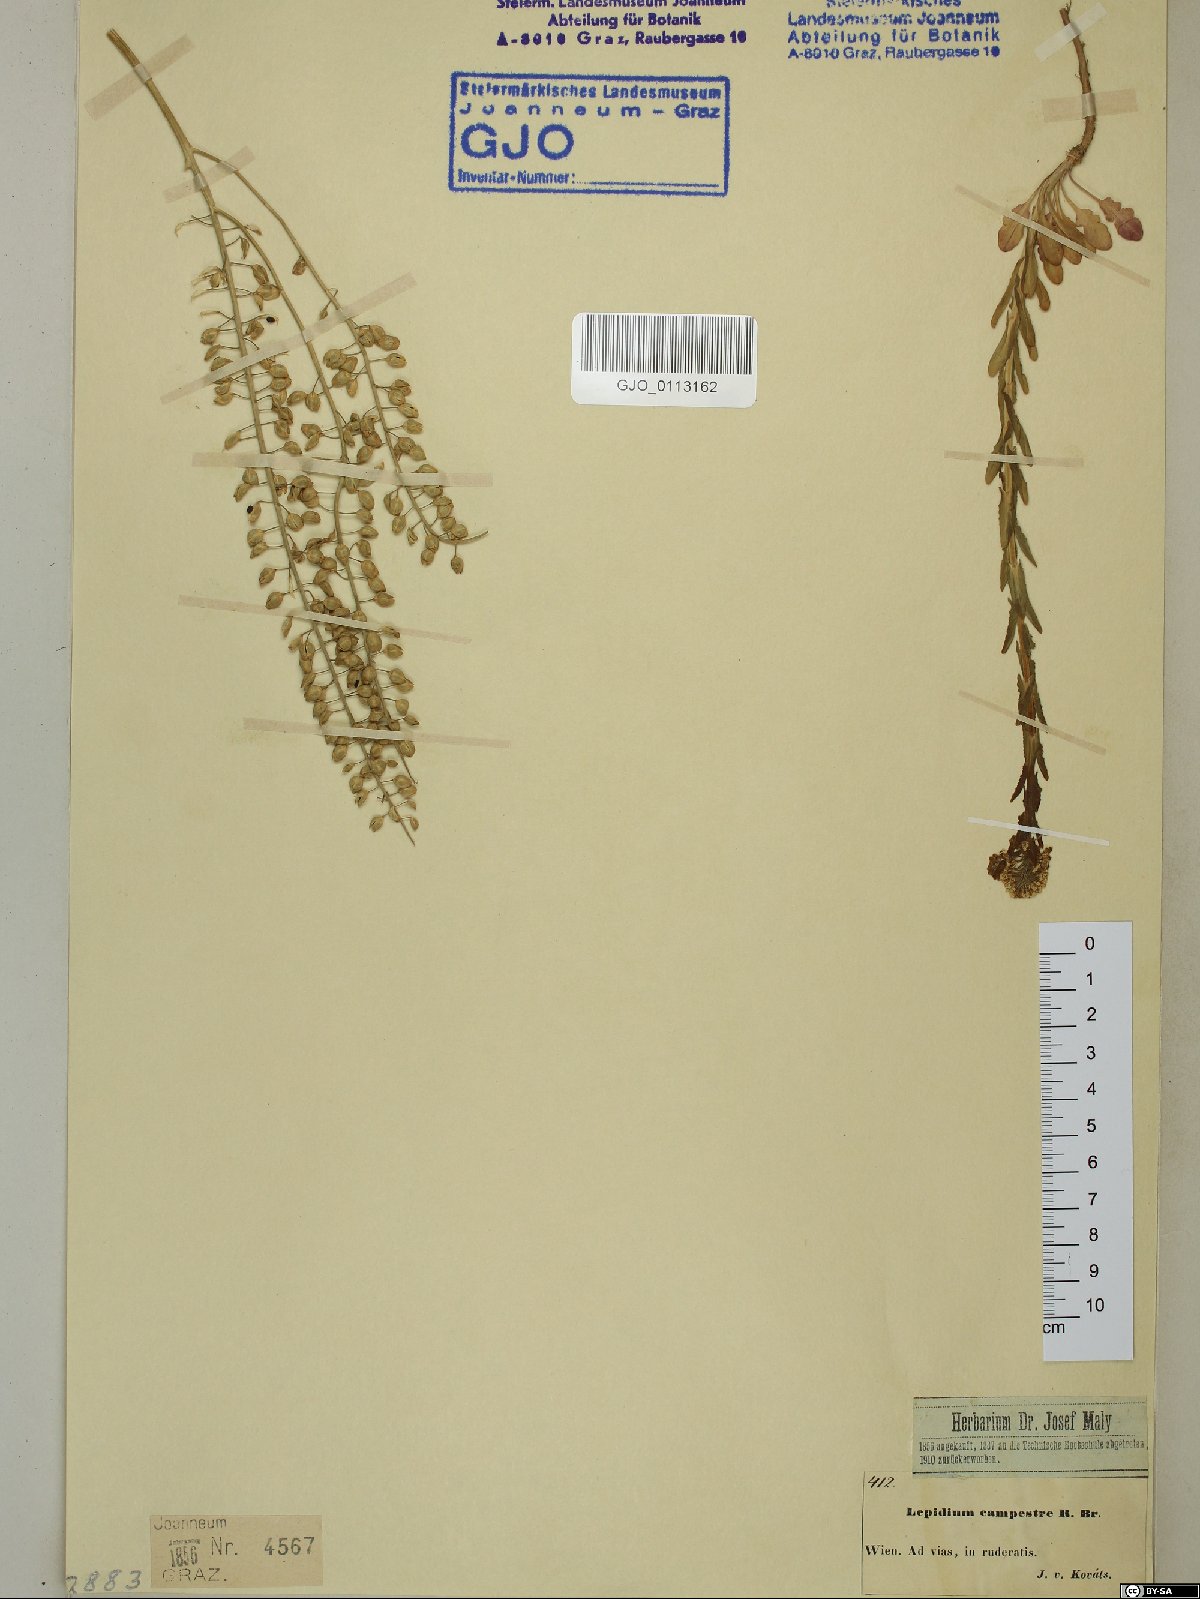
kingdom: Plantae
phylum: Tracheophyta
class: Magnoliopsida
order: Brassicales
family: Brassicaceae
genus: Lepidium
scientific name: Lepidium campestre
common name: Field pepperwort
